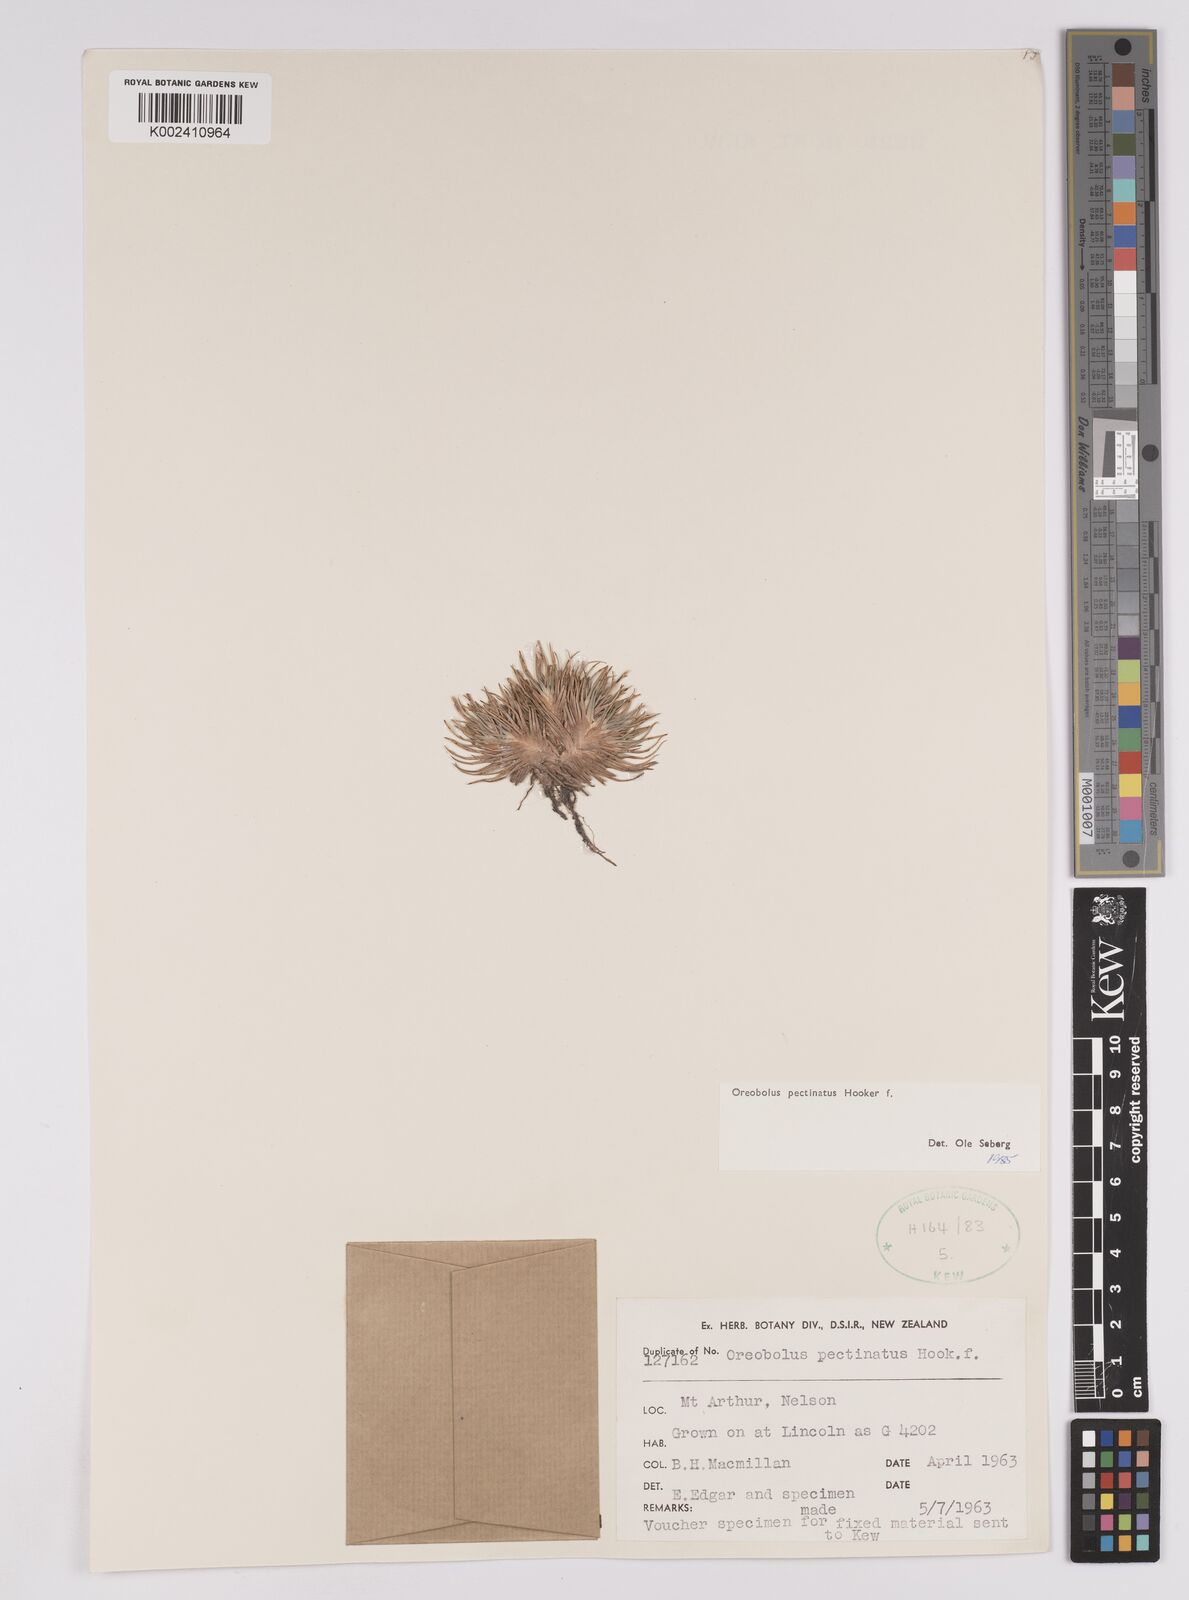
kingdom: Plantae
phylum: Tracheophyta
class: Liliopsida
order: Poales
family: Cyperaceae
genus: Oreobolus
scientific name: Oreobolus pectinatus
